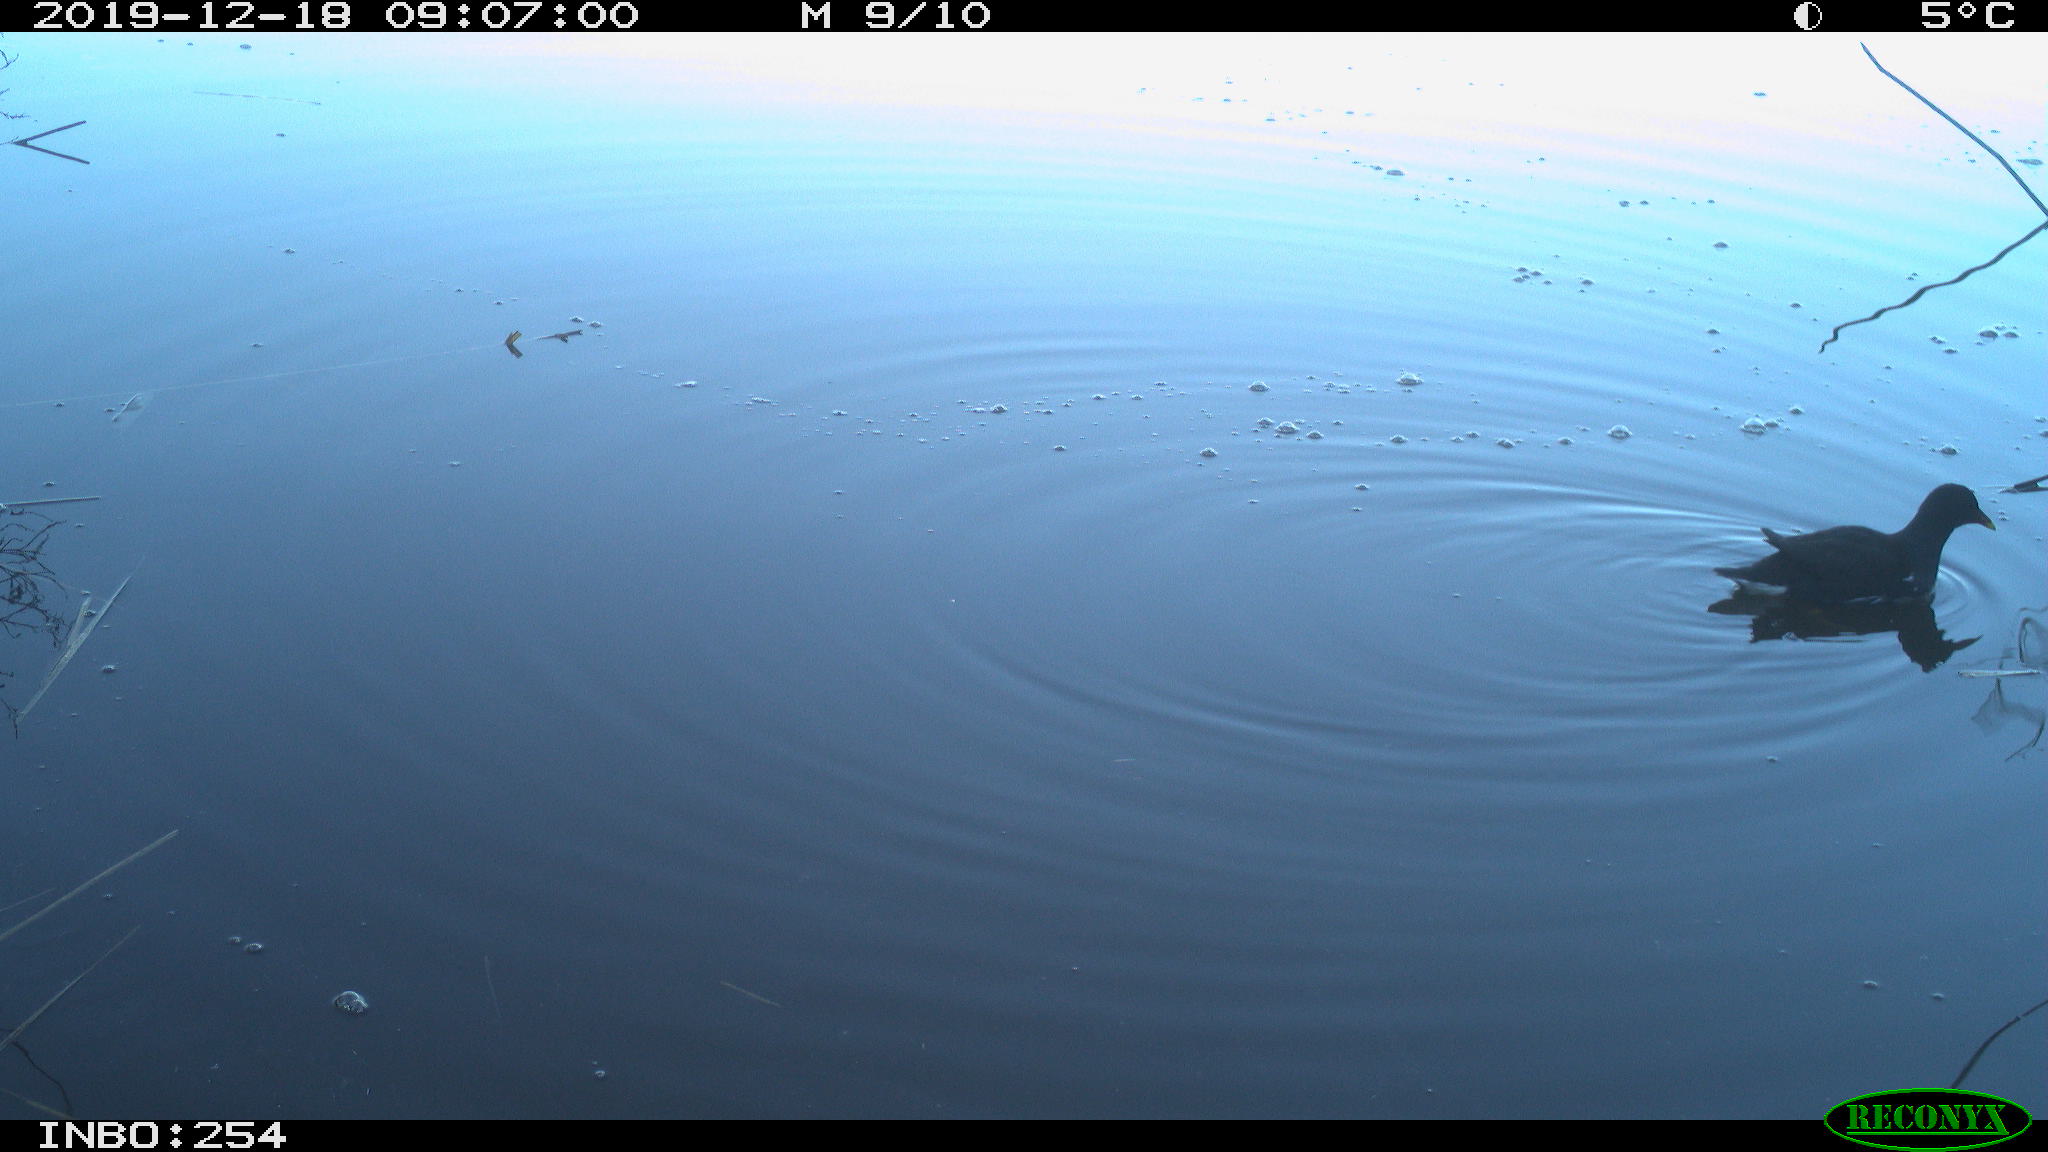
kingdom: Animalia
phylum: Chordata
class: Aves
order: Gruiformes
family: Rallidae
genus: Gallinula
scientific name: Gallinula chloropus
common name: Common moorhen
